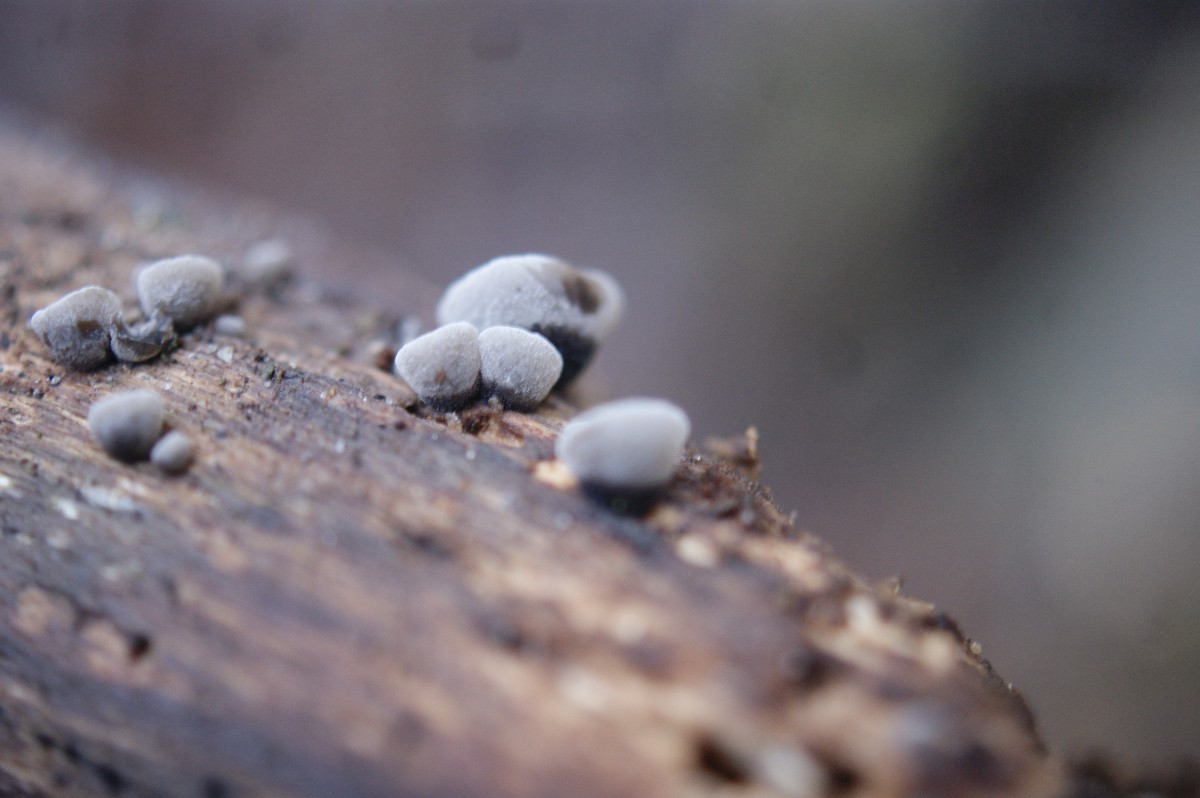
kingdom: Fungi
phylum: Basidiomycota
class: Agaricomycetes
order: Agaricales
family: Pleurotaceae
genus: Resupinatus
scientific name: Resupinatus trichotis
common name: mørkfiltet barkhat
